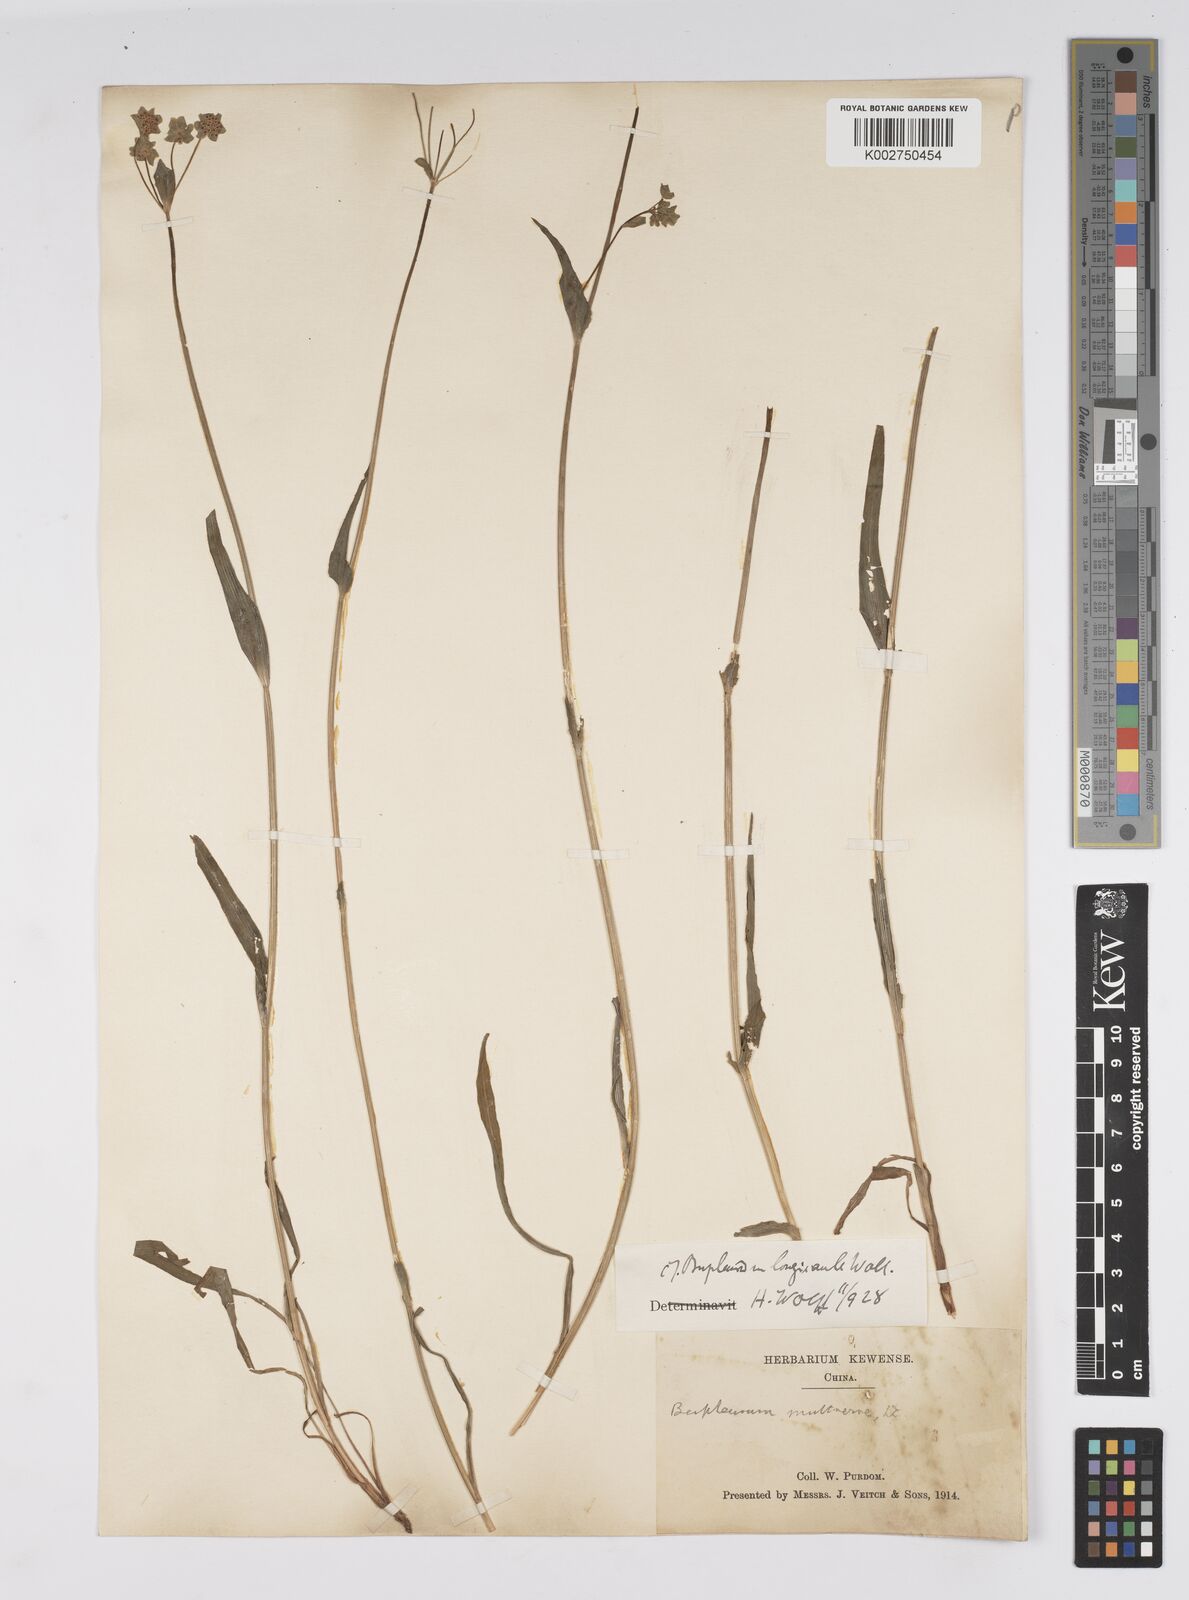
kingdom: Plantae
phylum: Tracheophyta
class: Magnoliopsida
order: Apiales
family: Apiaceae
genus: Bupleurum
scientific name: Bupleurum longicaule
